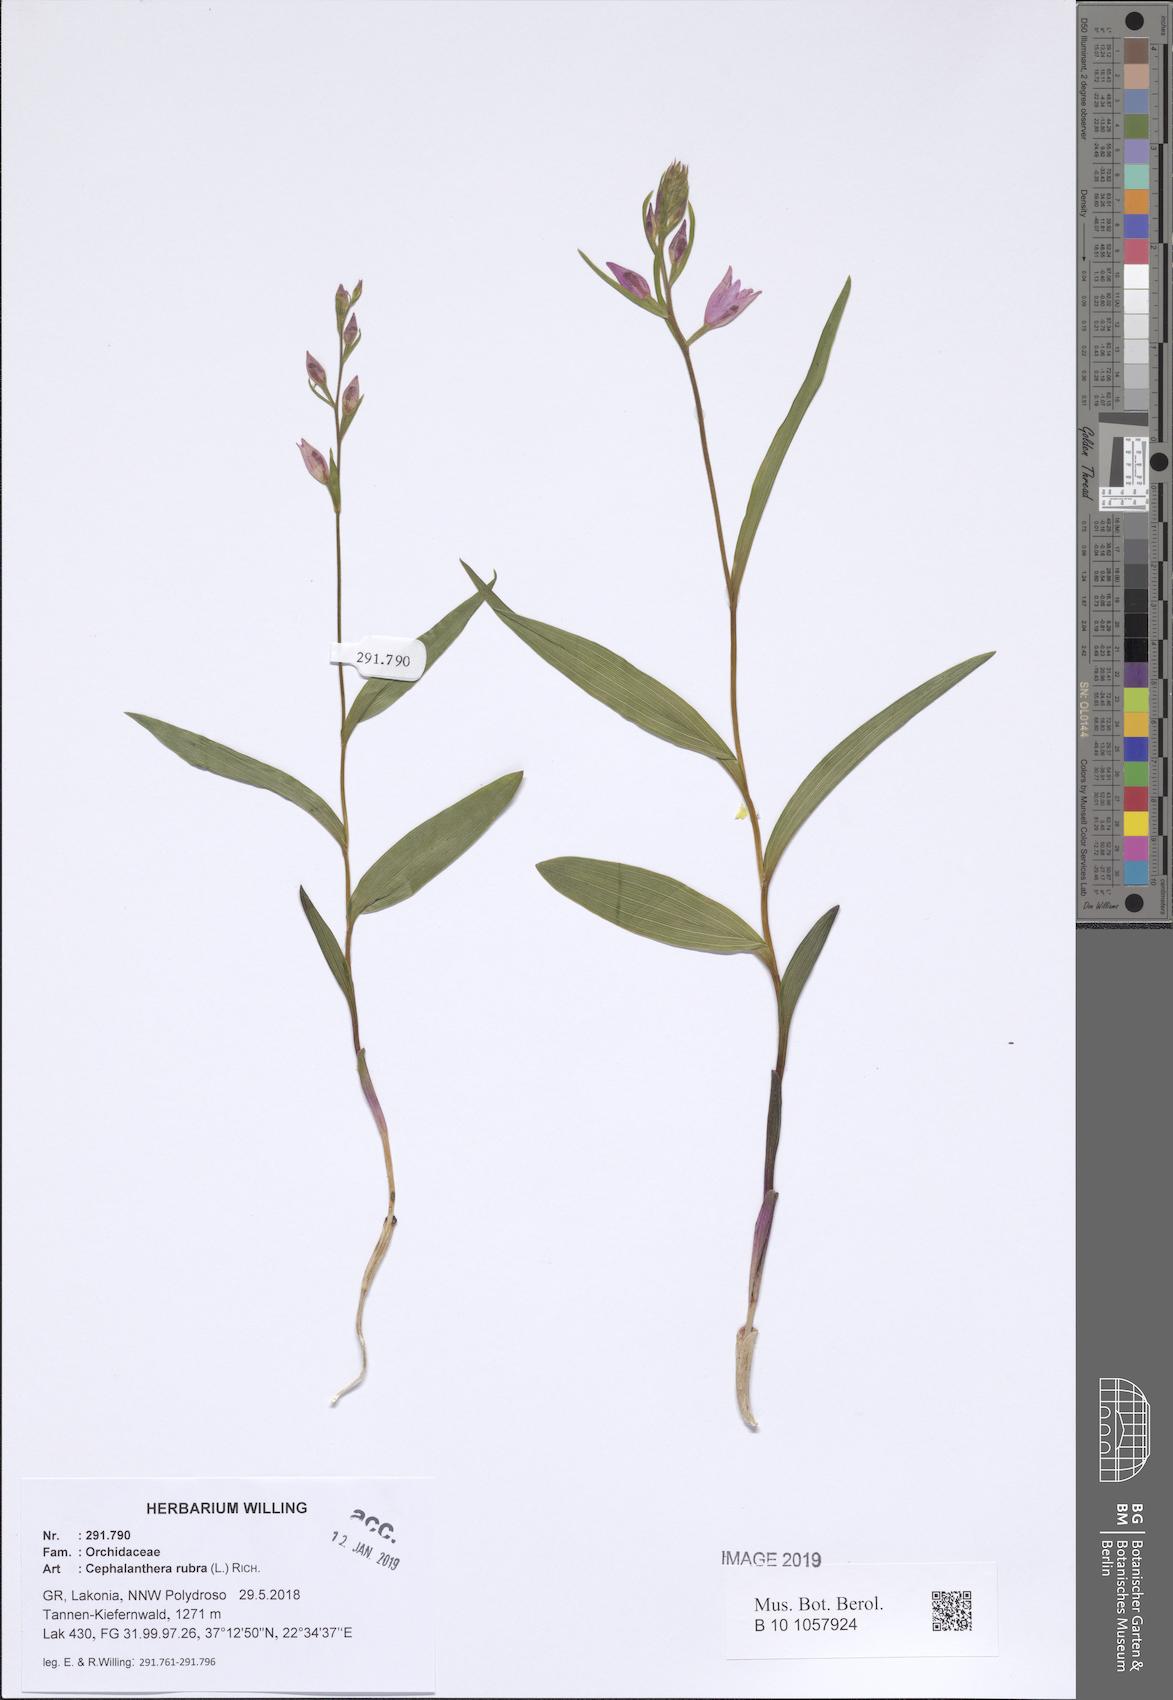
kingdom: Plantae
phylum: Tracheophyta
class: Liliopsida
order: Asparagales
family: Orchidaceae
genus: Cephalanthera
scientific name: Cephalanthera rubra
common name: Red helleborine
